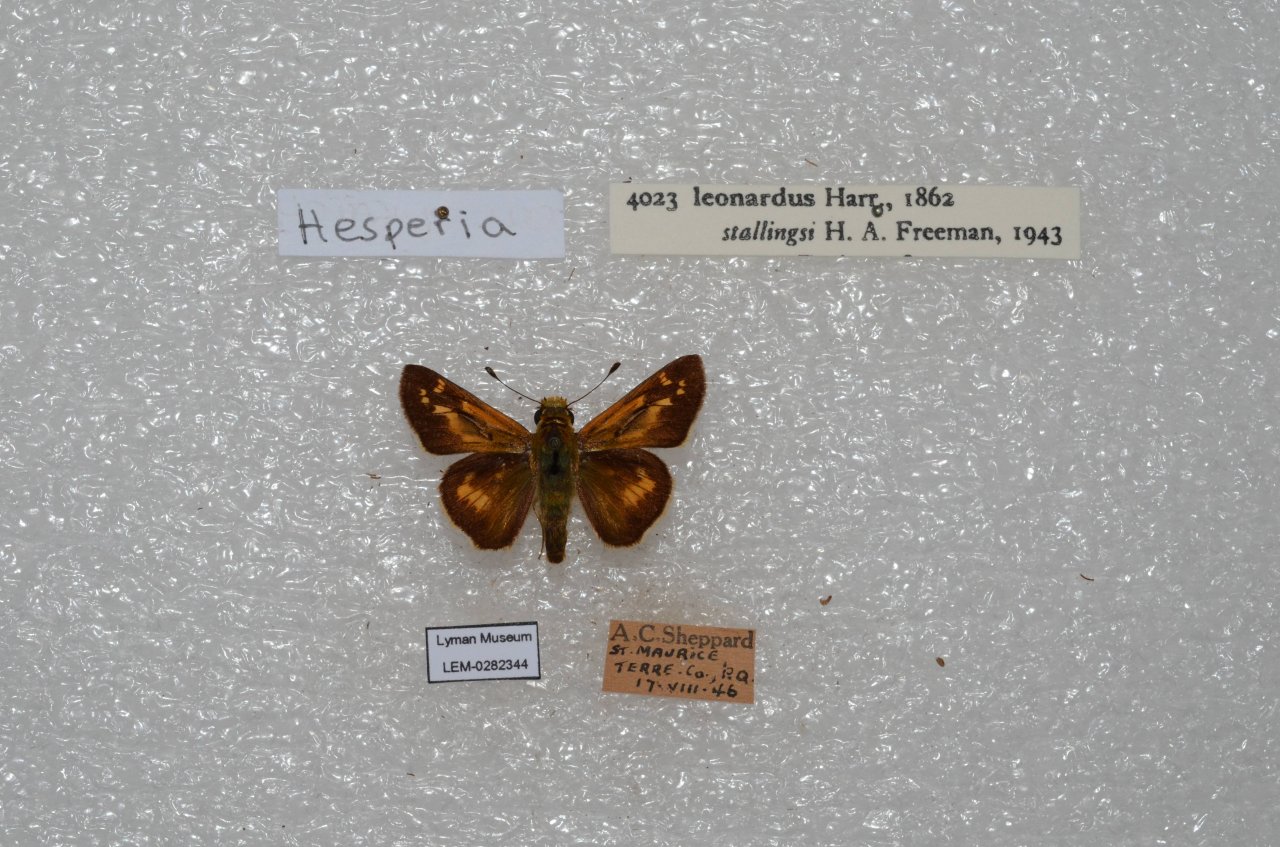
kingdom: Animalia
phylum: Arthropoda
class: Insecta
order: Lepidoptera
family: Hesperiidae
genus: Hesperia
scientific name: Hesperia leonardus
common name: Leonard's Skipper
